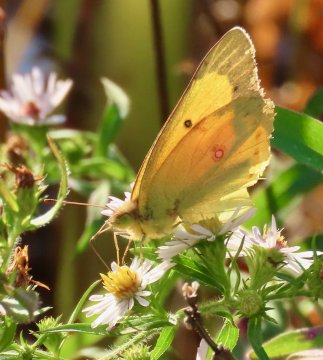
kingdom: Animalia
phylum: Arthropoda
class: Insecta
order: Lepidoptera
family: Pieridae
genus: Colias
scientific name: Colias eurytheme
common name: Orange Sulphur
